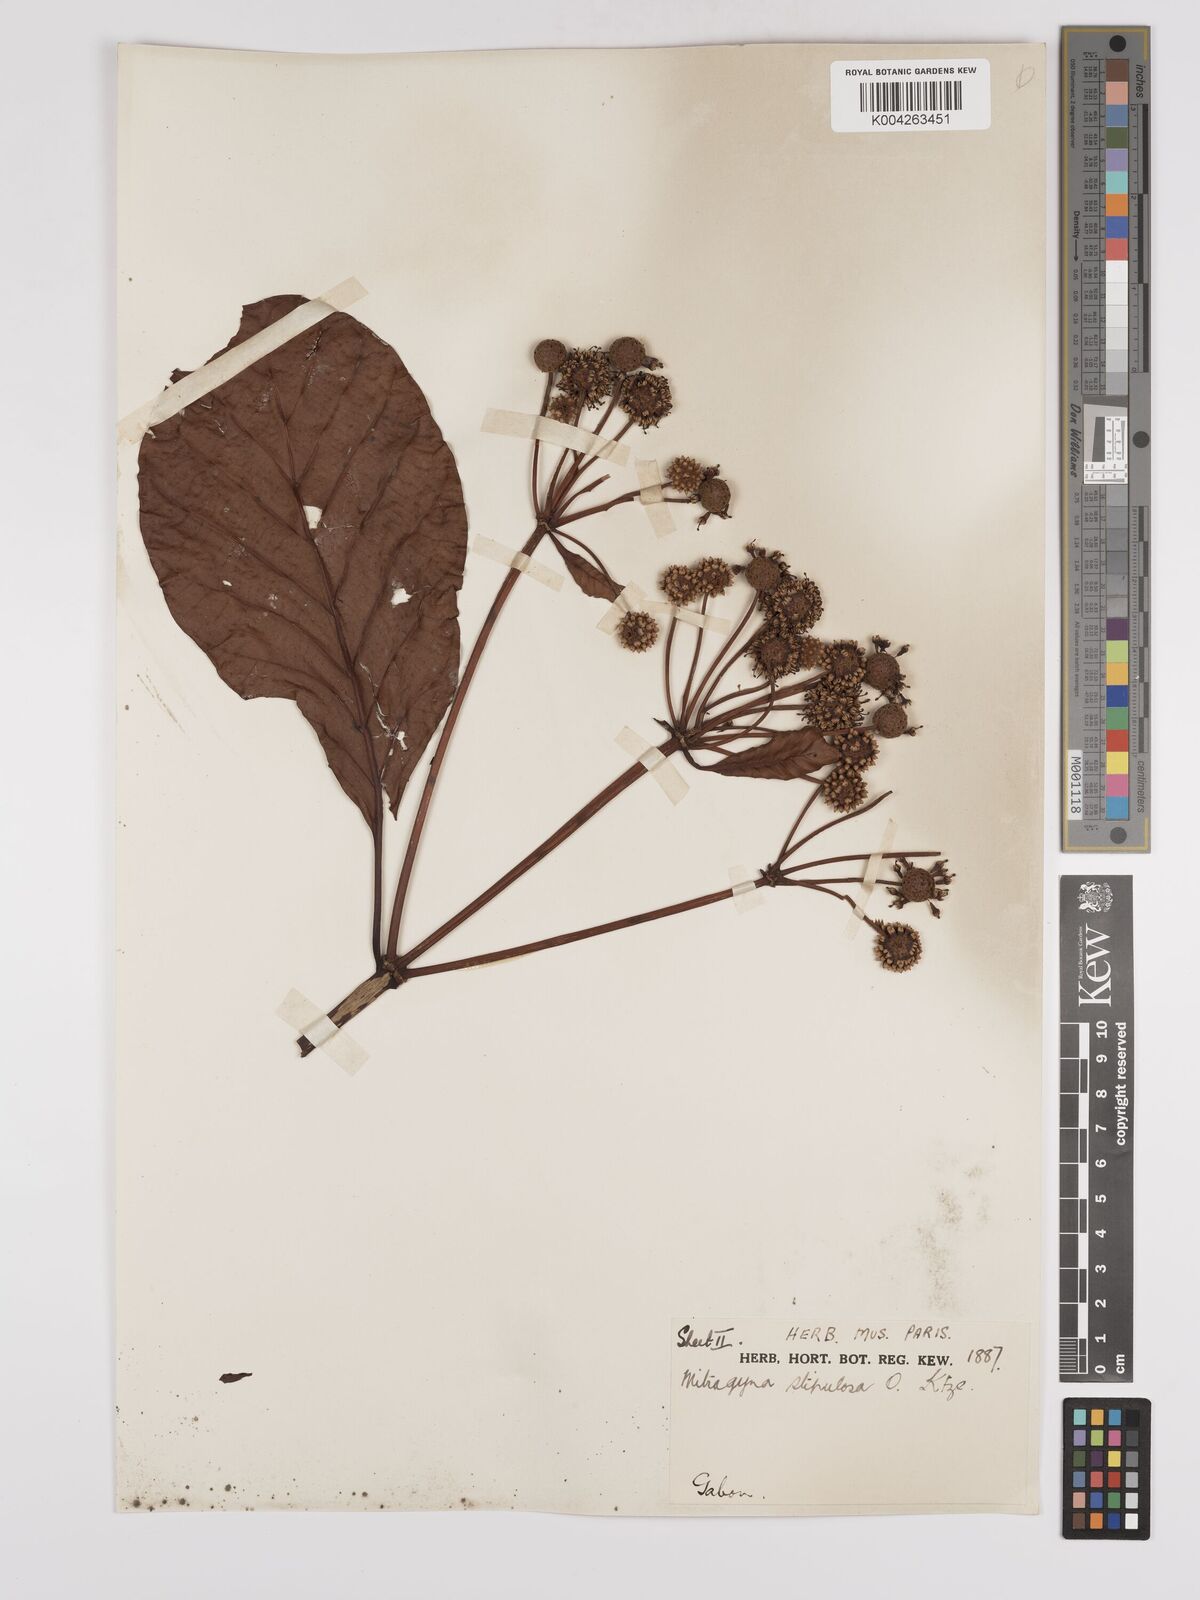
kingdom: Plantae
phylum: Tracheophyta
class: Magnoliopsida
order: Gentianales
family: Rubiaceae
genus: Mitragyna
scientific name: Mitragyna stipulosa
